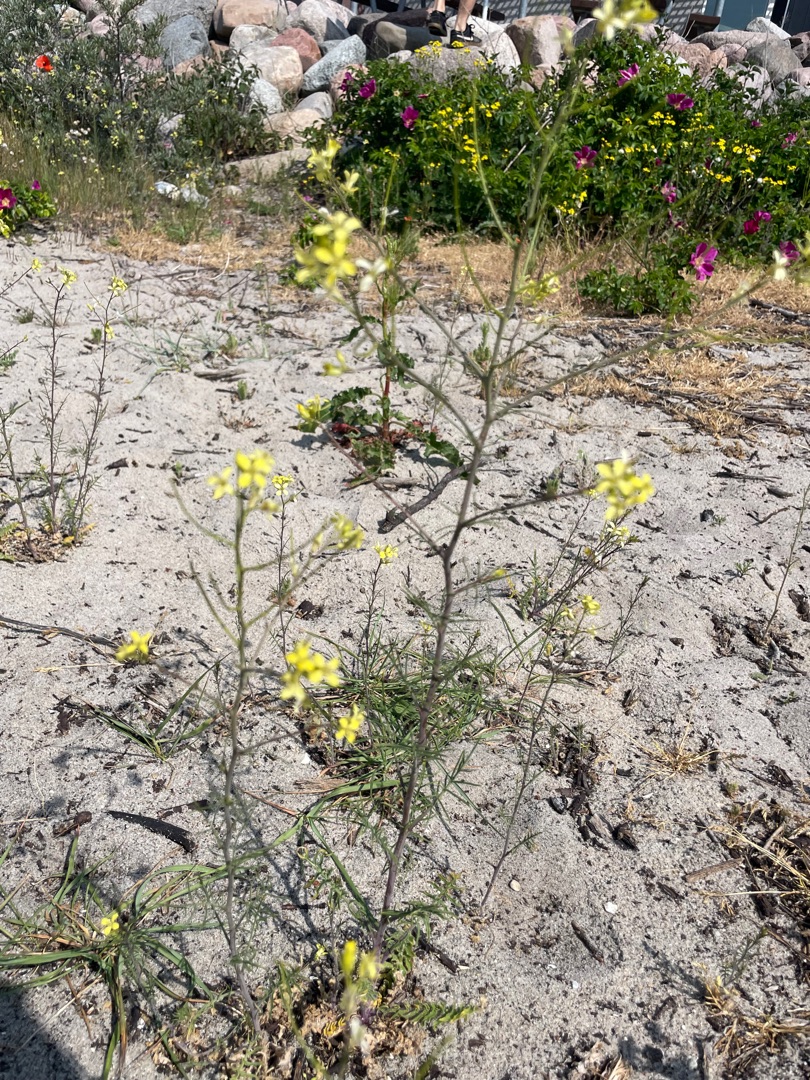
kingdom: Plantae
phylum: Tracheophyta
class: Magnoliopsida
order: Brassicales
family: Brassicaceae
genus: Sisymbrium
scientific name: Sisymbrium altissimum
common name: Ungarsk vejsennep
